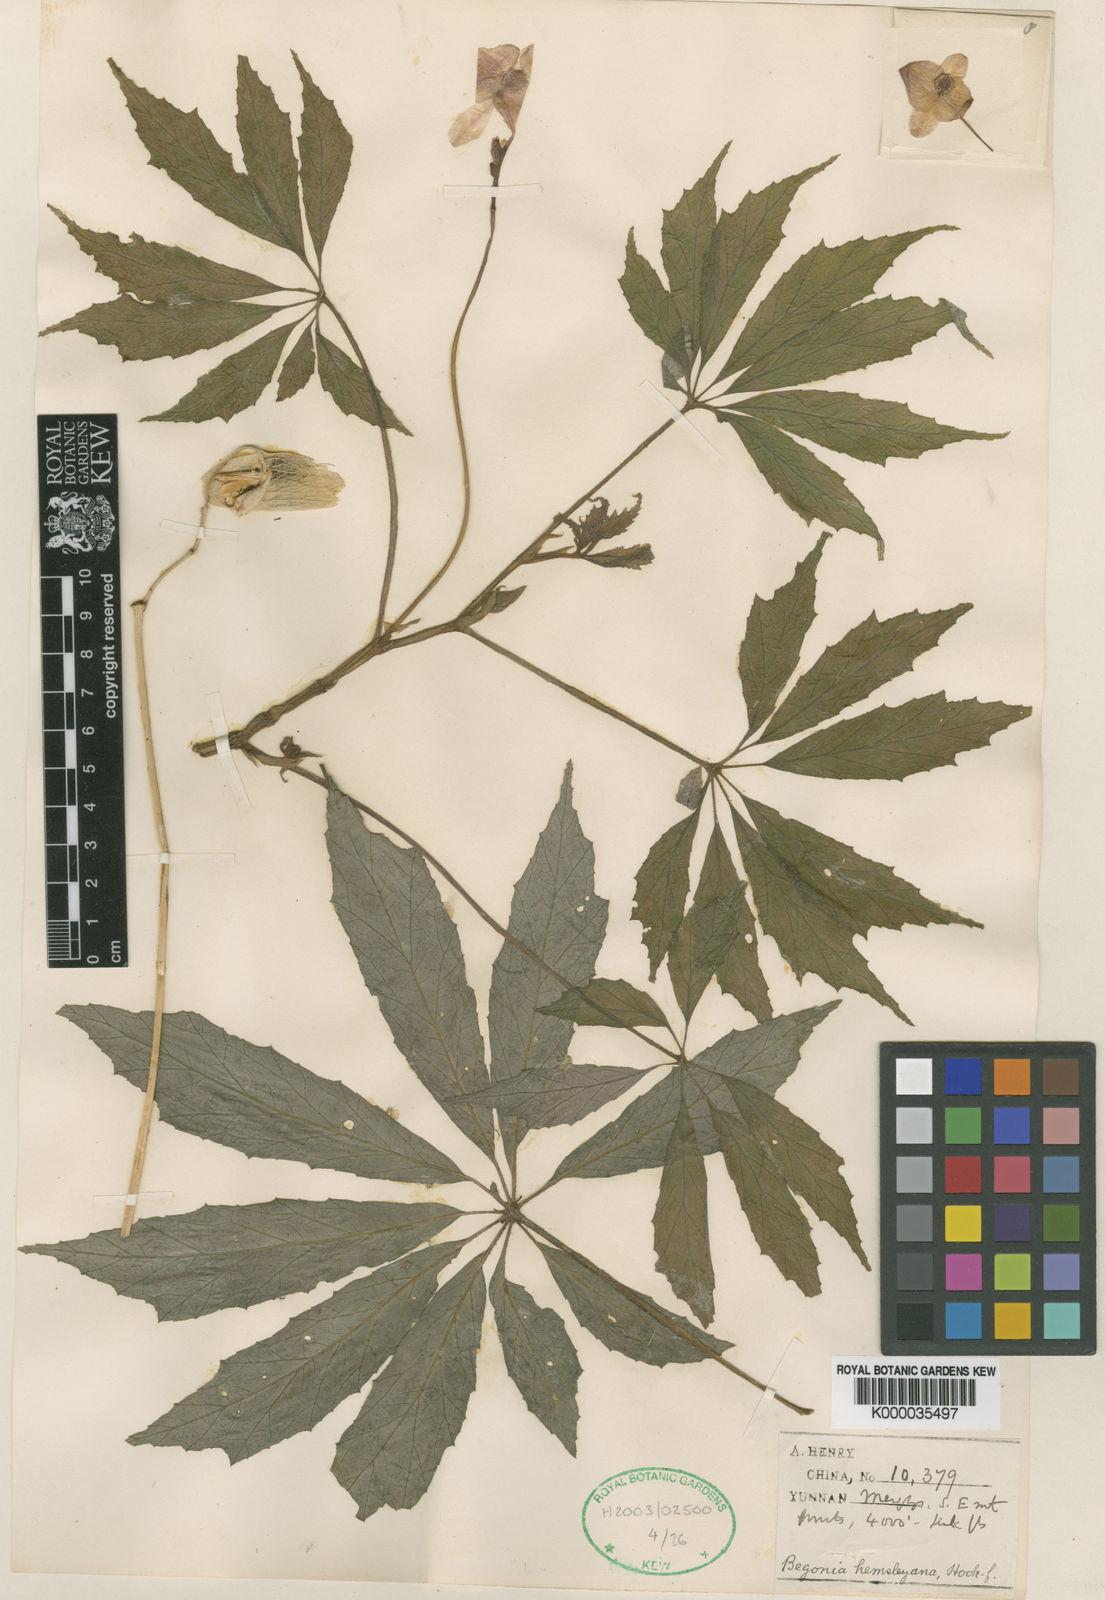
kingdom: Plantae
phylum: Tracheophyta
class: Magnoliopsida
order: Cucurbitales
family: Begoniaceae
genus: Begonia
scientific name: Begonia hemsleyana
